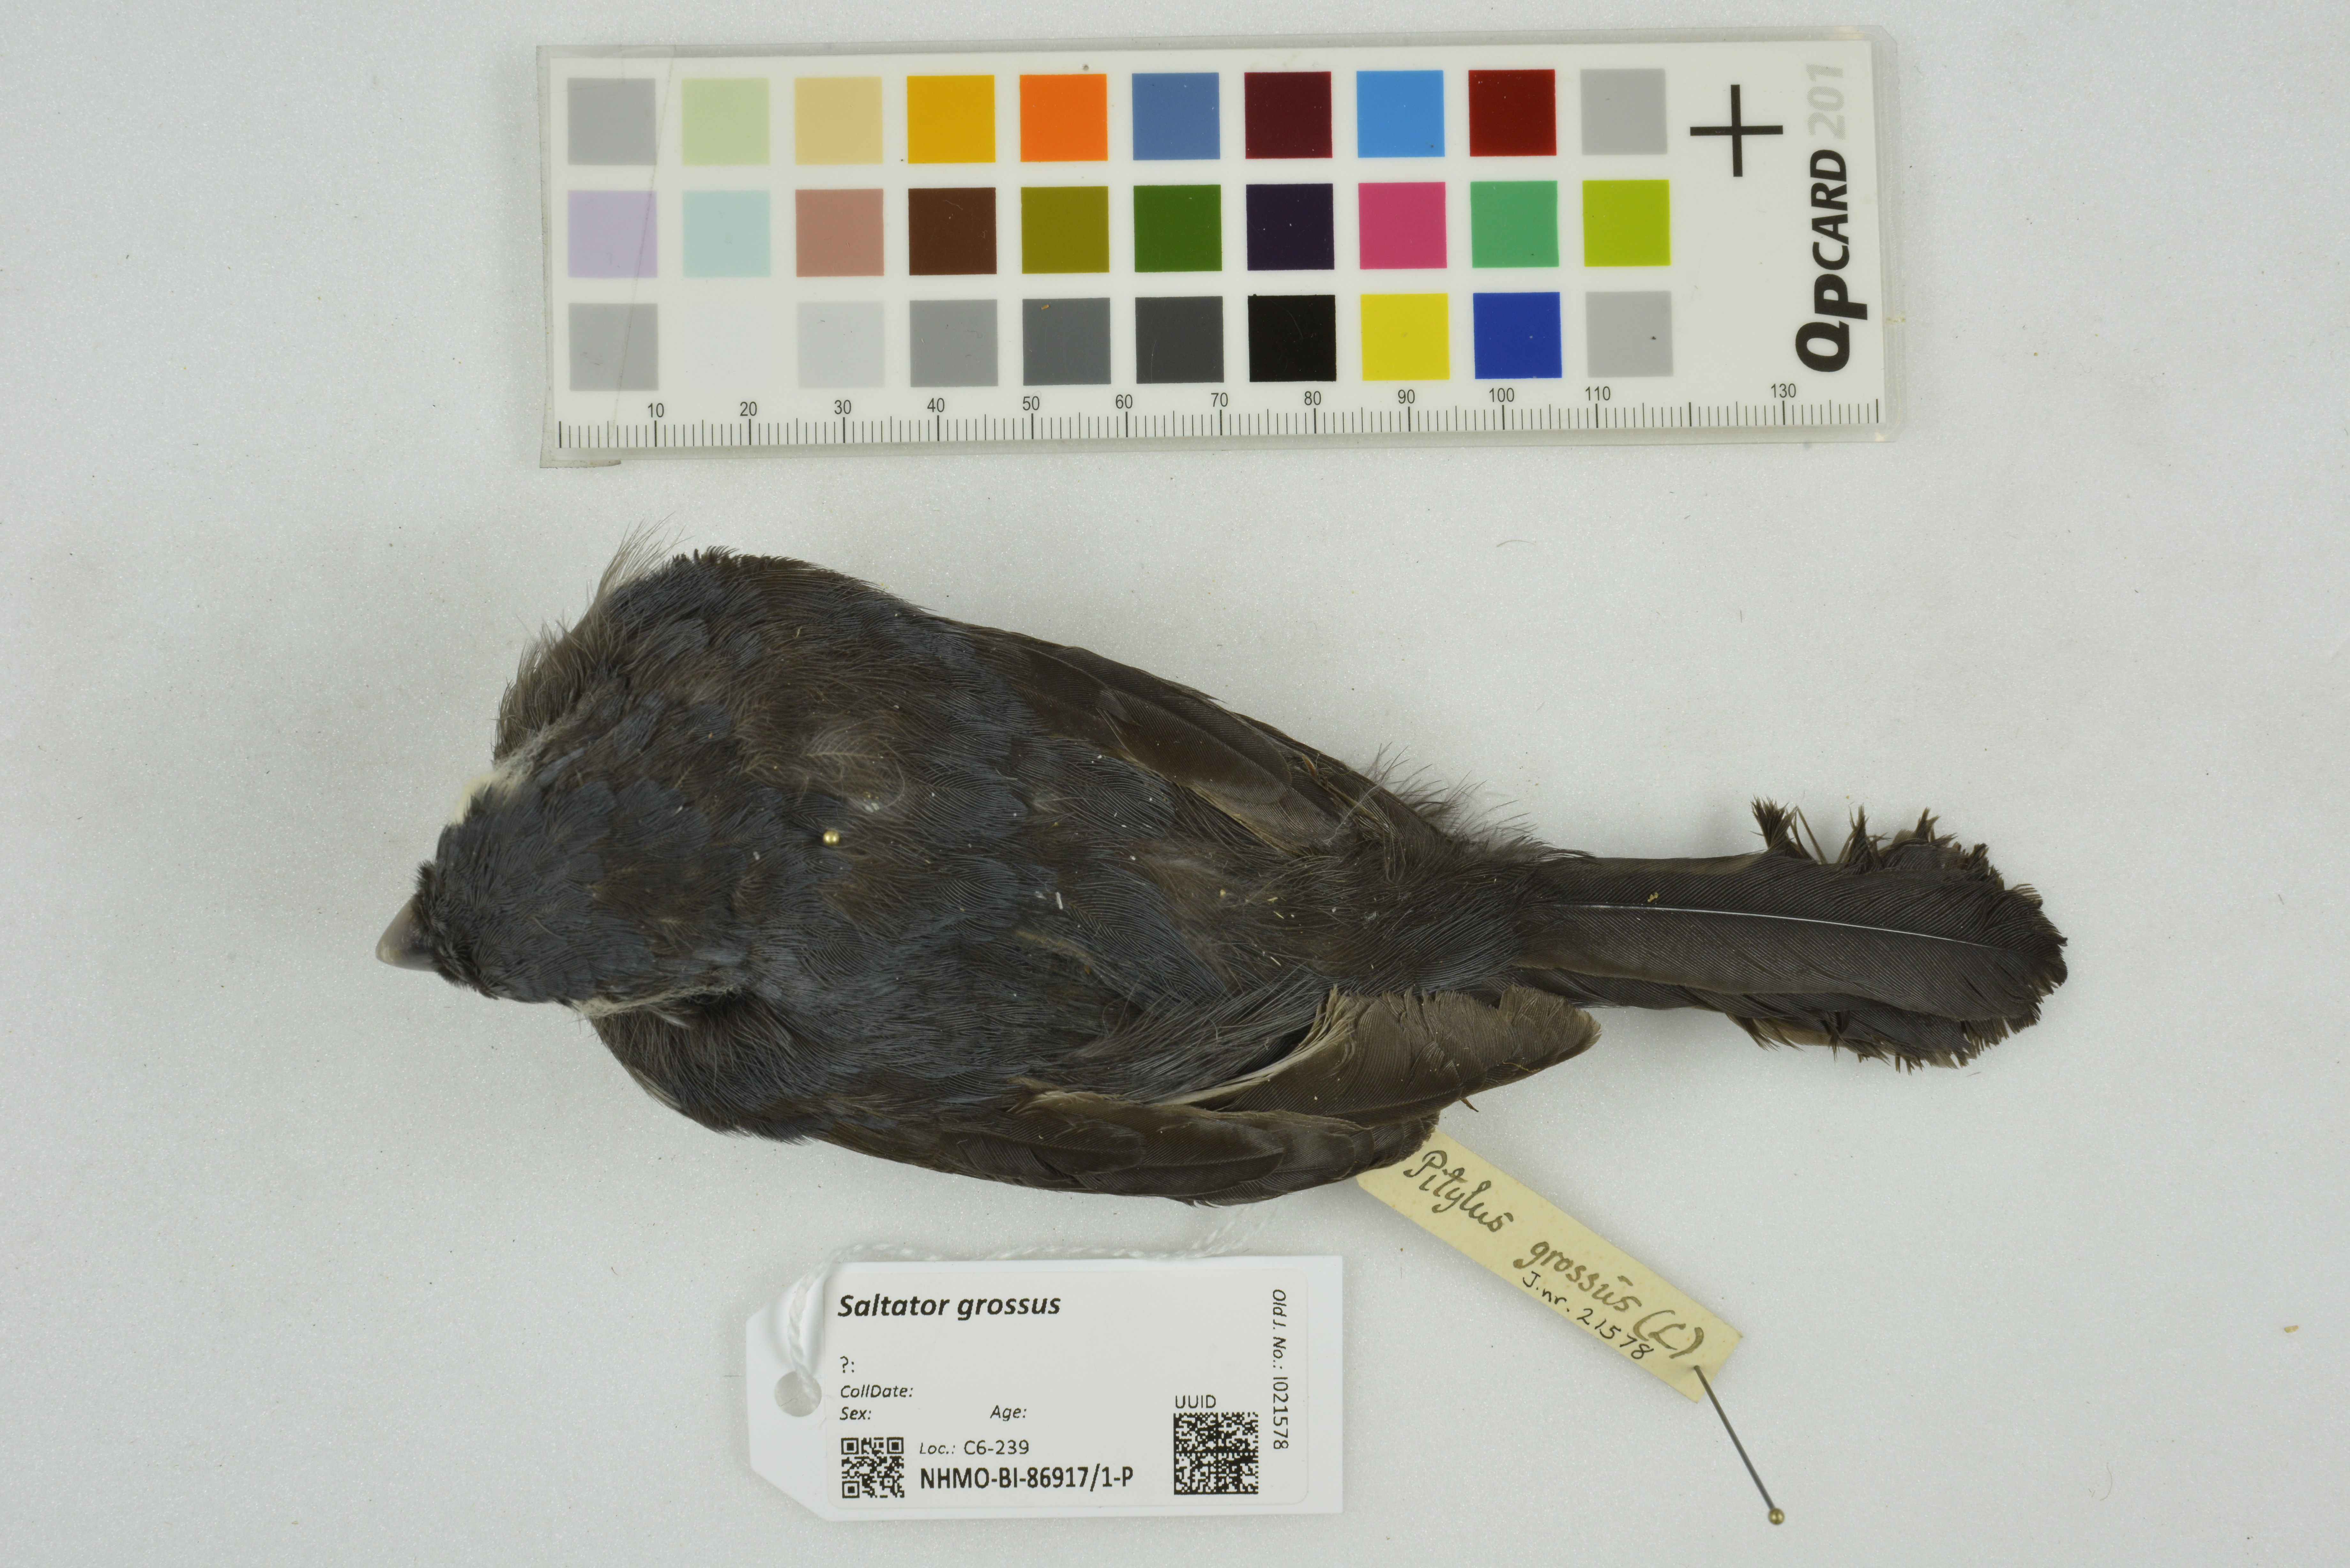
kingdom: Animalia
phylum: Chordata
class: Aves
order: Passeriformes
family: Thraupidae
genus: Saltator
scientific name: Saltator grossus
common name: Slate-colored grosbeak
